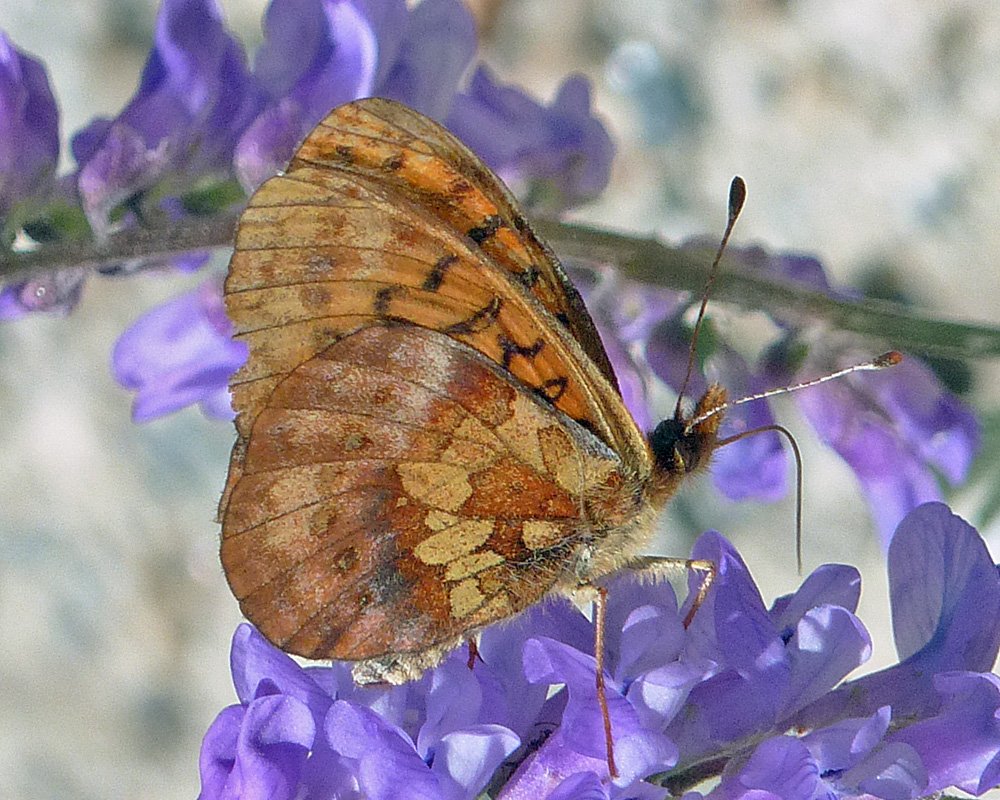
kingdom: Animalia
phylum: Arthropoda
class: Insecta
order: Lepidoptera
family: Nymphalidae
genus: Boloria
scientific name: Boloria epithore
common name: Pacific Fritillary
